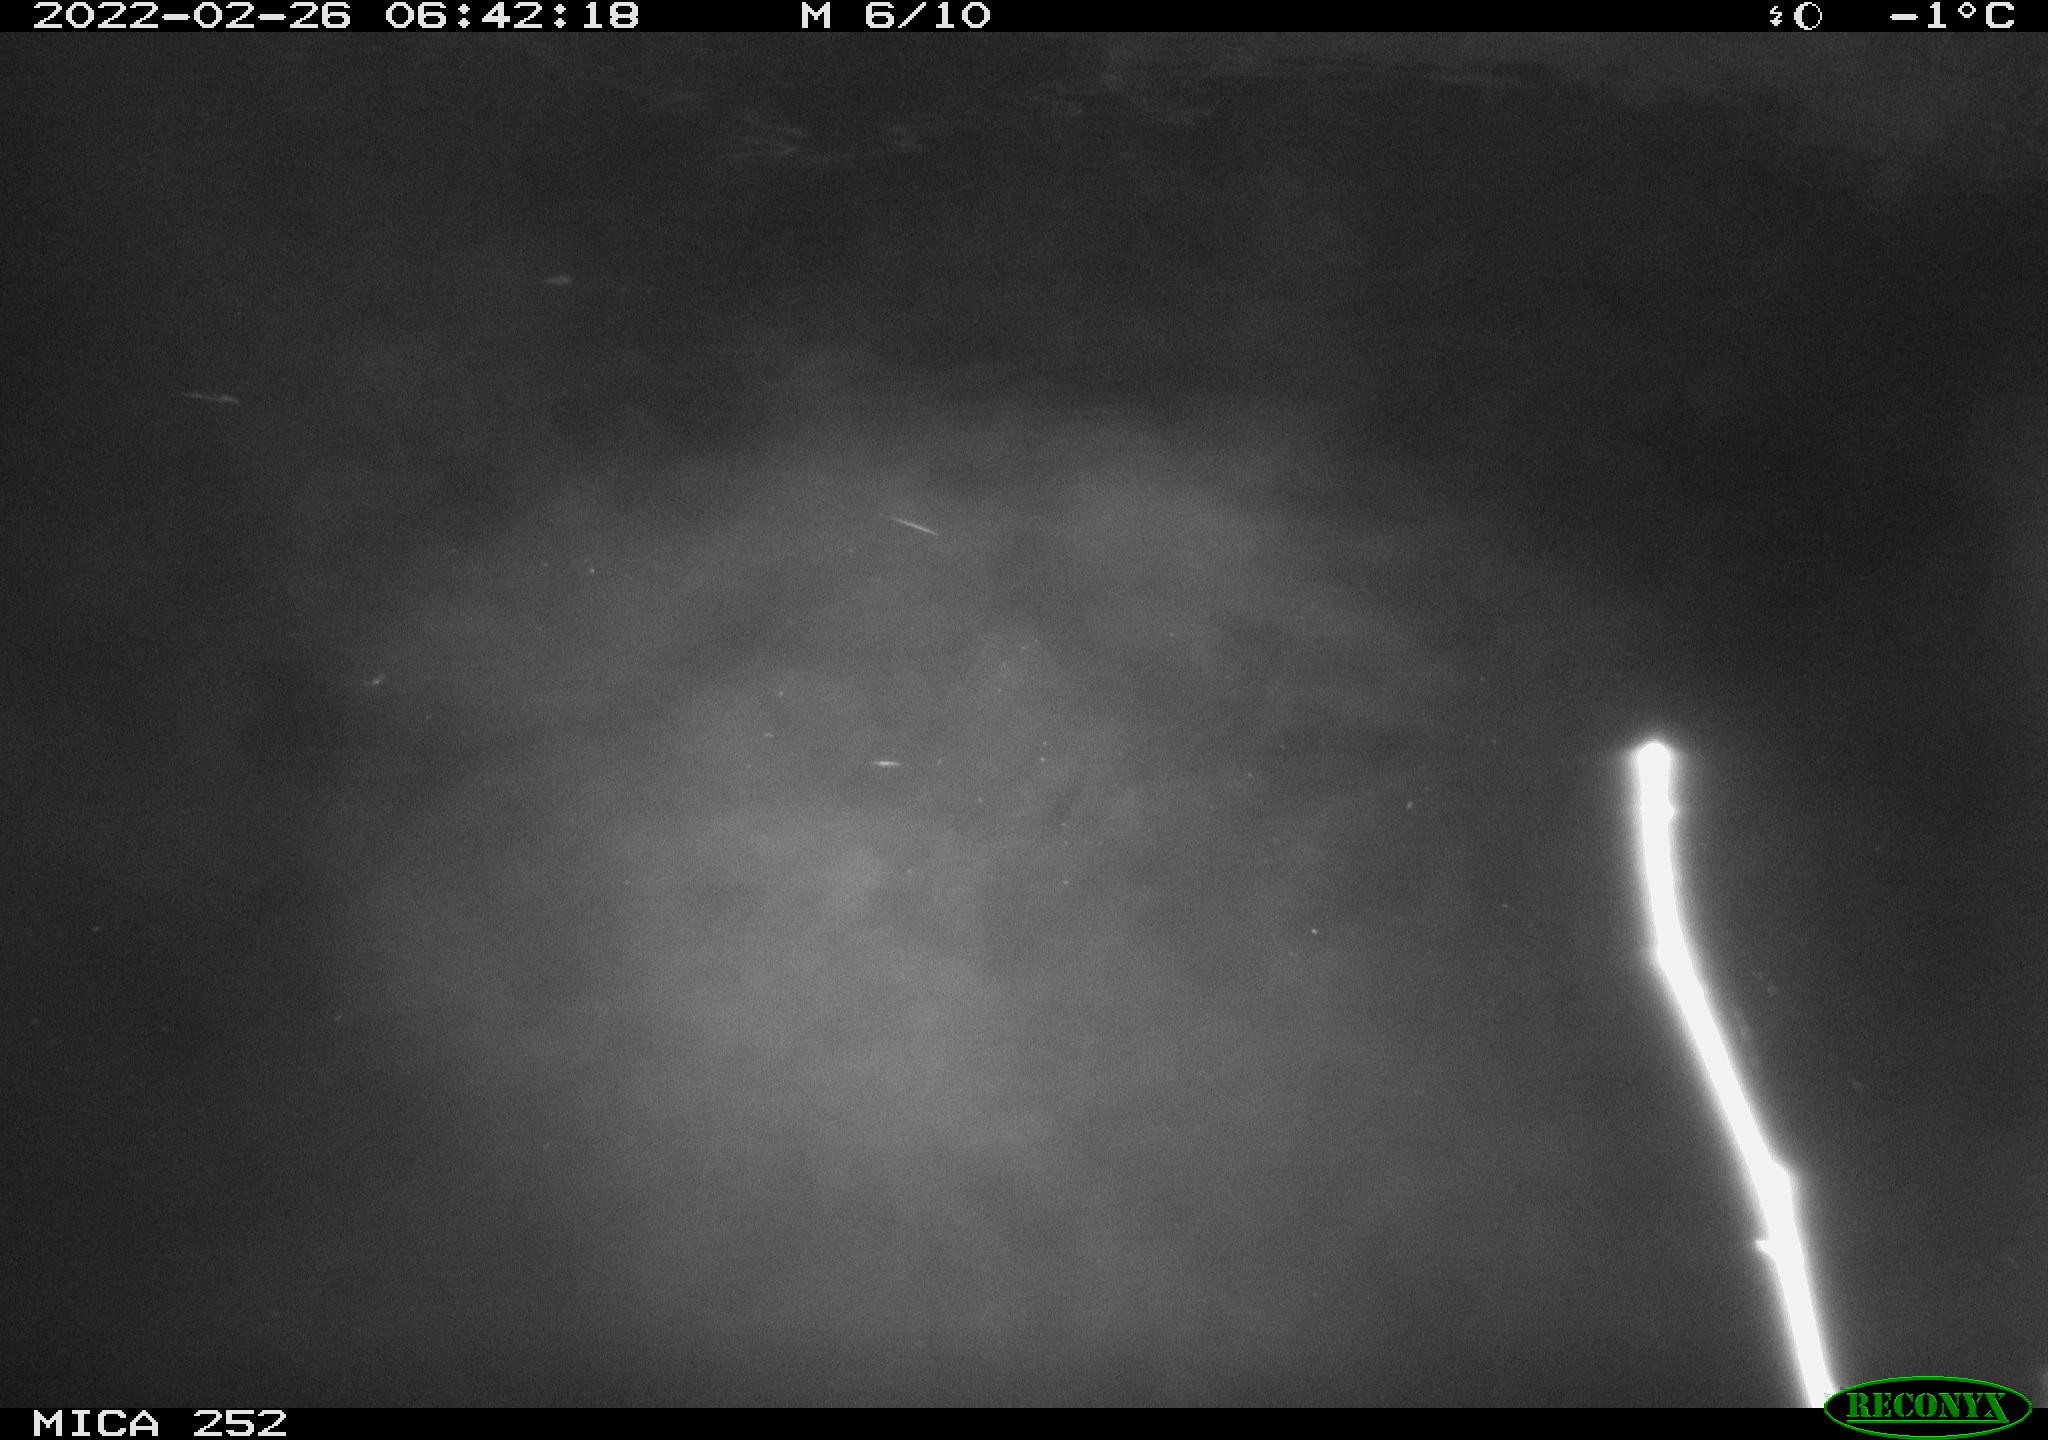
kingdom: Animalia
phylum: Chordata
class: Aves
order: Anseriformes
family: Anatidae
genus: Anas
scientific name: Anas platyrhynchos
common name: Mallard
